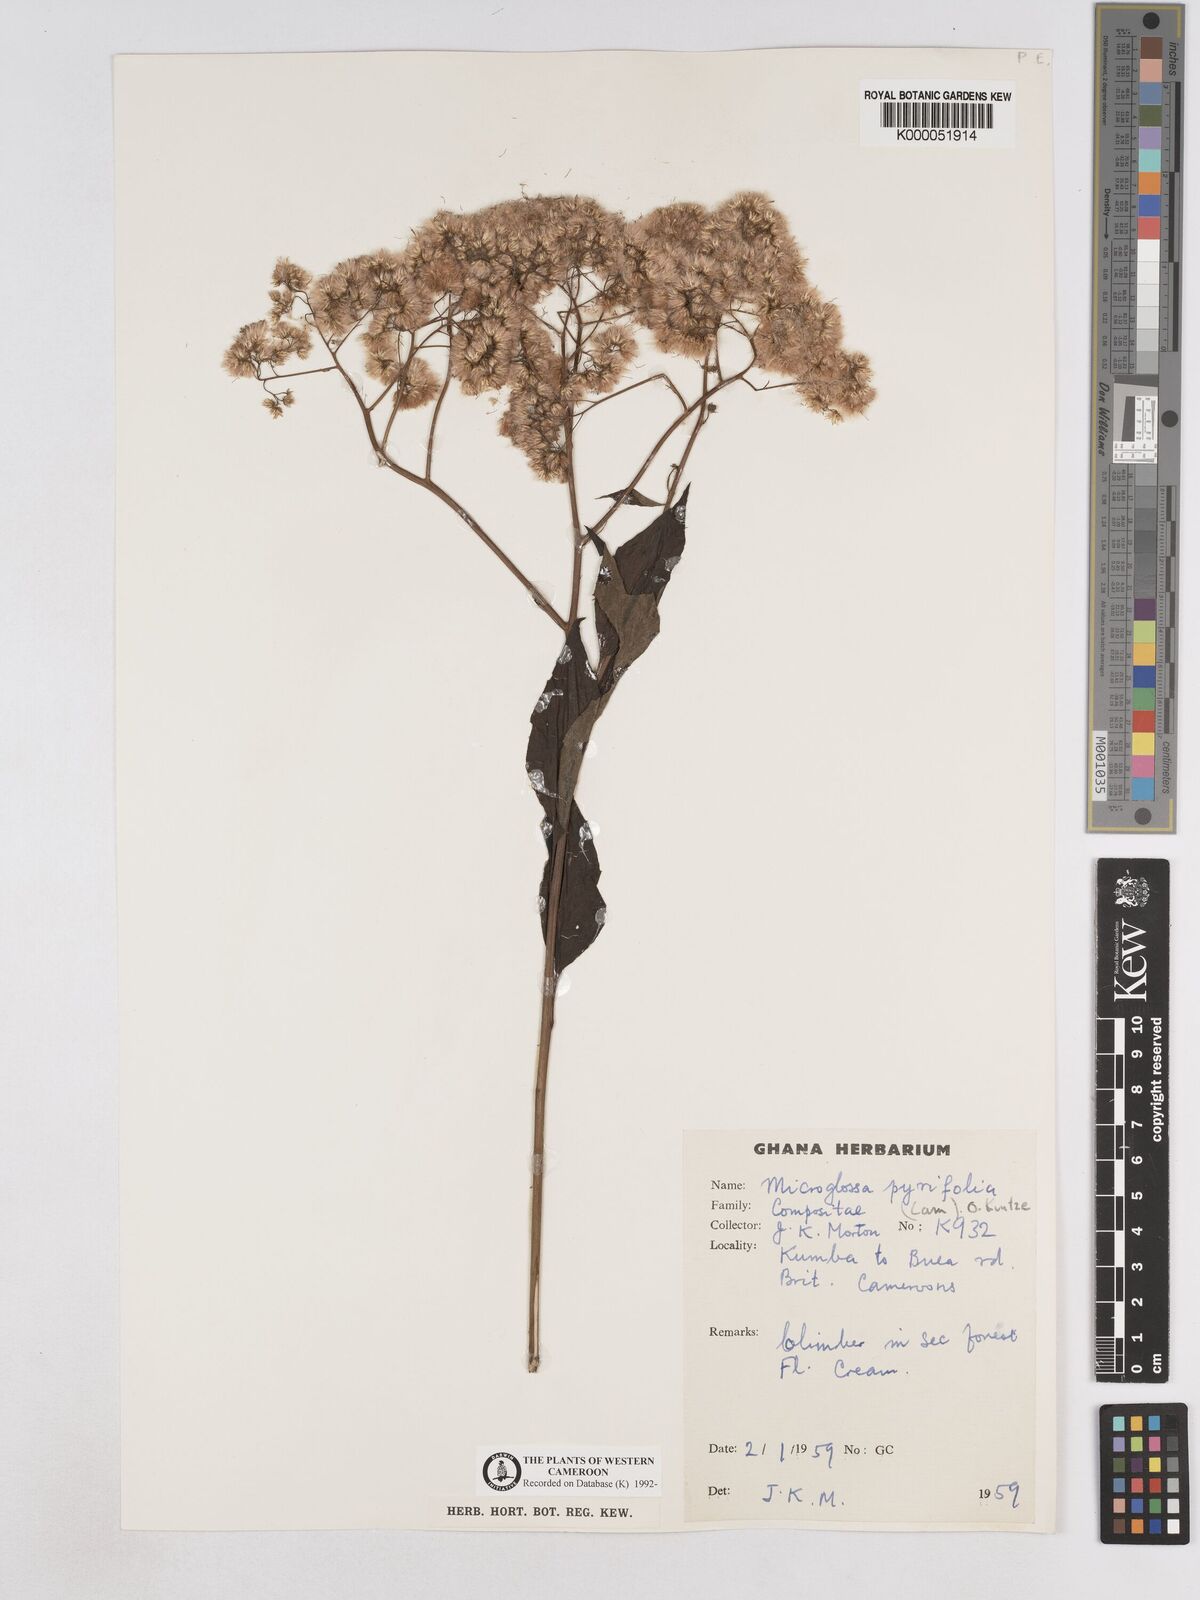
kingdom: Plantae
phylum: Tracheophyta
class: Magnoliopsida
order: Asterales
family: Asteraceae
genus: Microglossa
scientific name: Microglossa pyrifolia
